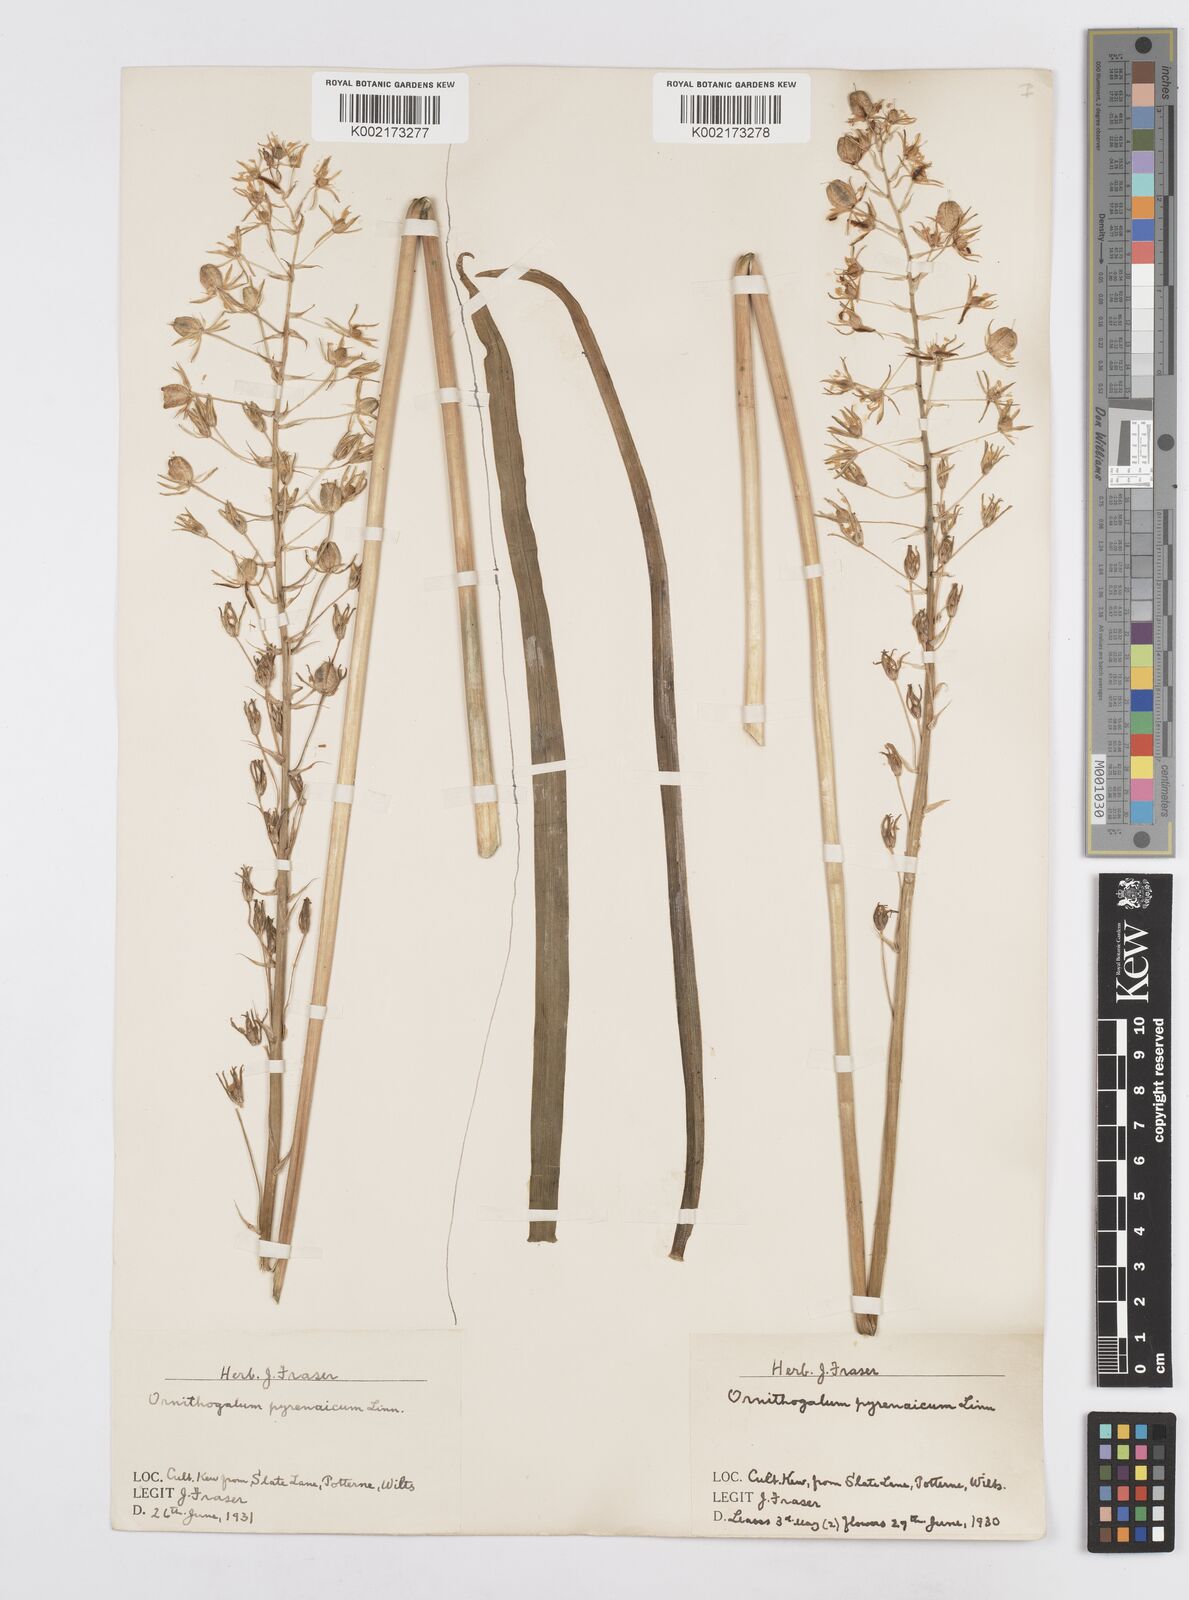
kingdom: Plantae
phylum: Tracheophyta
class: Liliopsida
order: Asparagales
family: Asparagaceae
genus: Ornithogalum
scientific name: Ornithogalum pyrenaicum
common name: Spiked star-of-bethlehem
